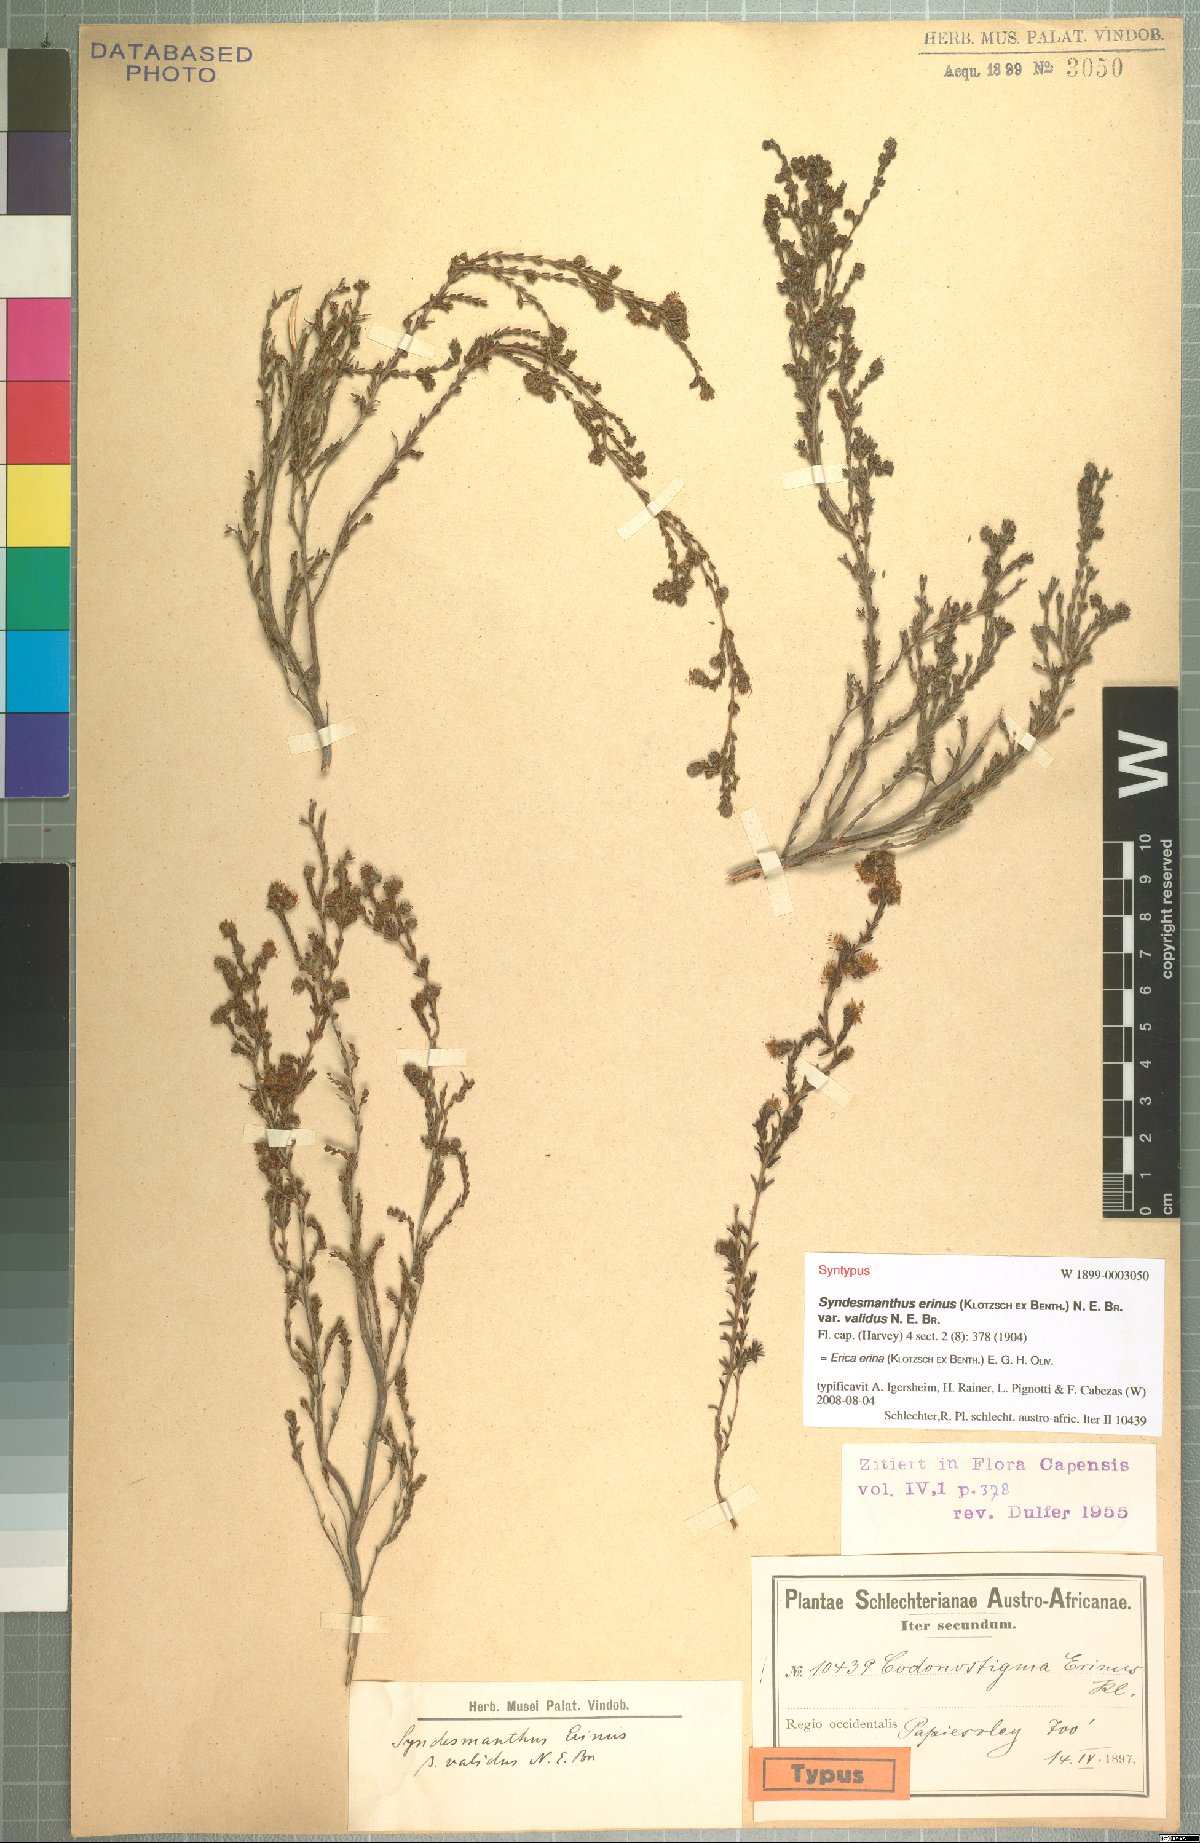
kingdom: Plantae
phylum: Tracheophyta
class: Magnoliopsida
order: Ericales
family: Ericaceae
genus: Erica
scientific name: Erica erinus
